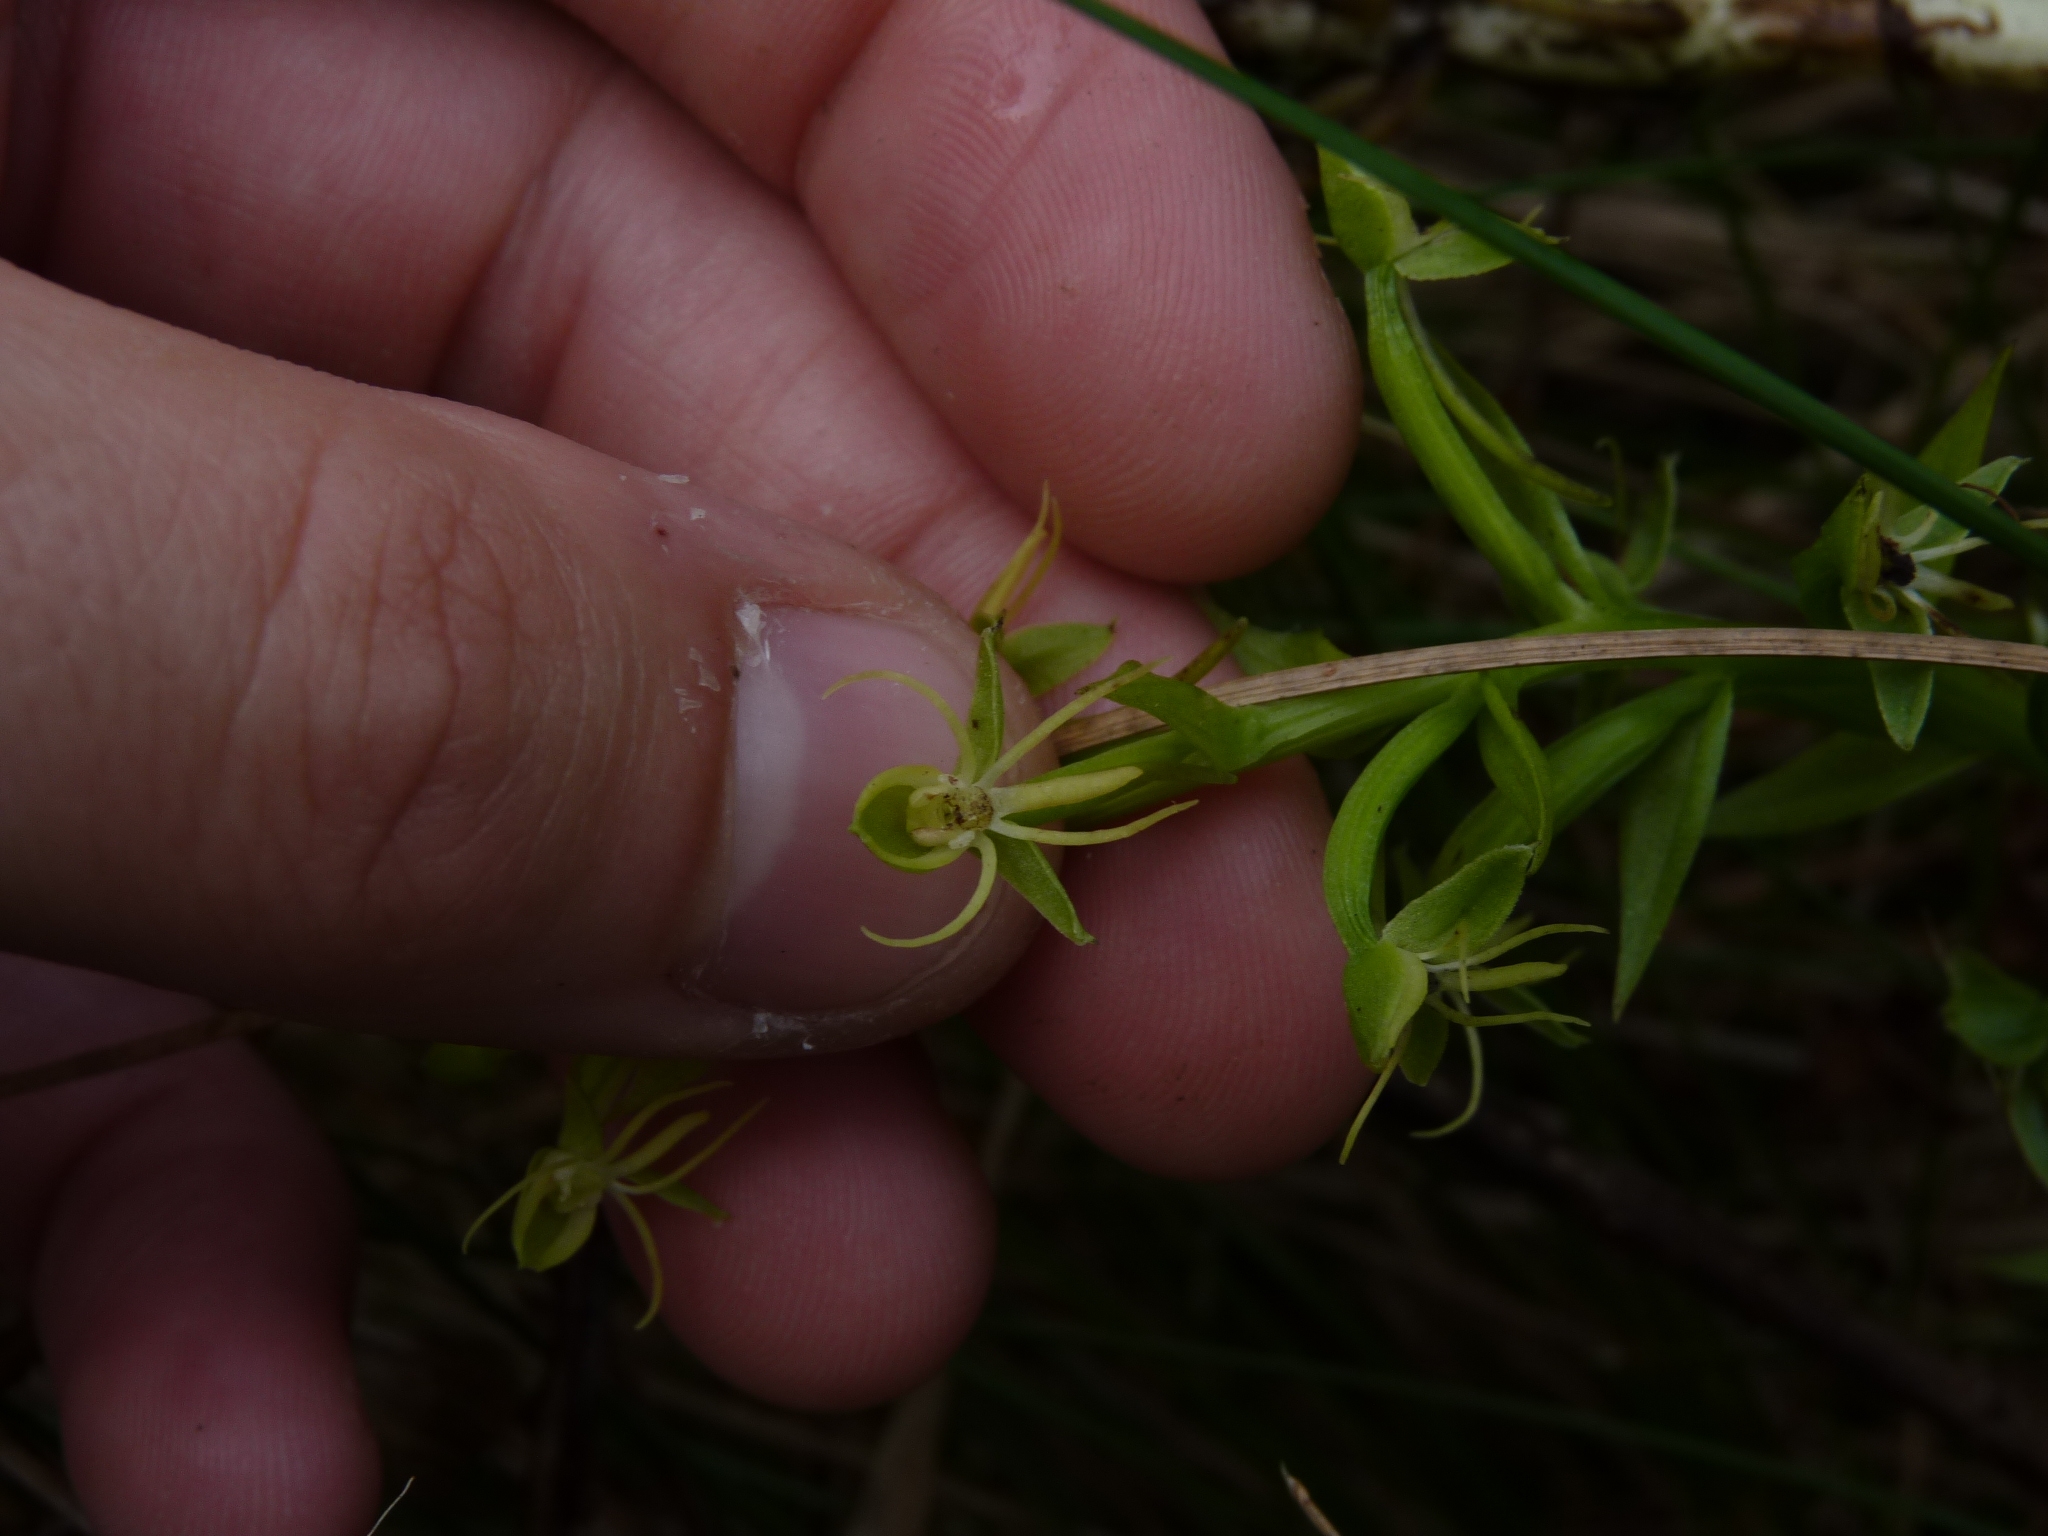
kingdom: Plantae
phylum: Tracheophyta
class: Liliopsida
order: Asparagales
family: Orchidaceae
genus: Habenaria
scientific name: Habenaria repens
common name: water-spider orchid
